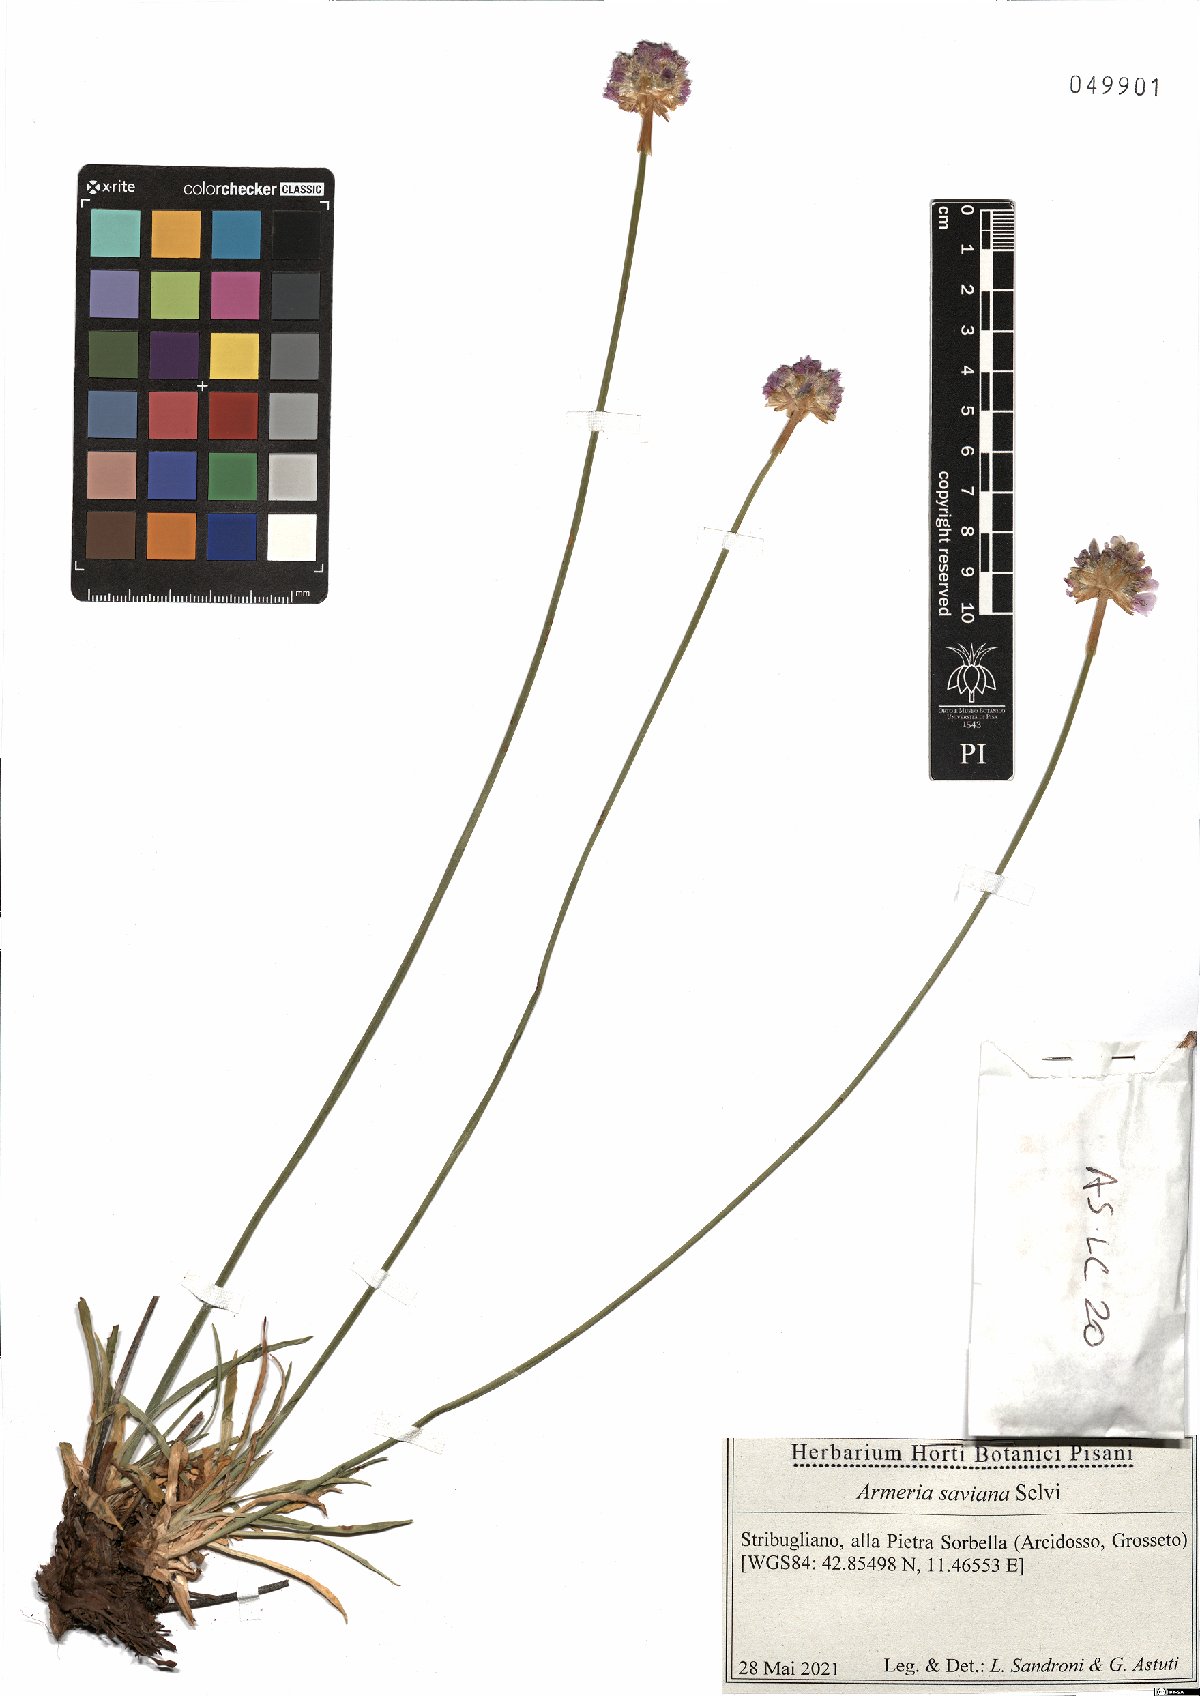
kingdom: Plantae
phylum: Tracheophyta
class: Magnoliopsida
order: Caryophyllales
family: Plumbaginaceae
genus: Armeria
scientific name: Armeria saviana
